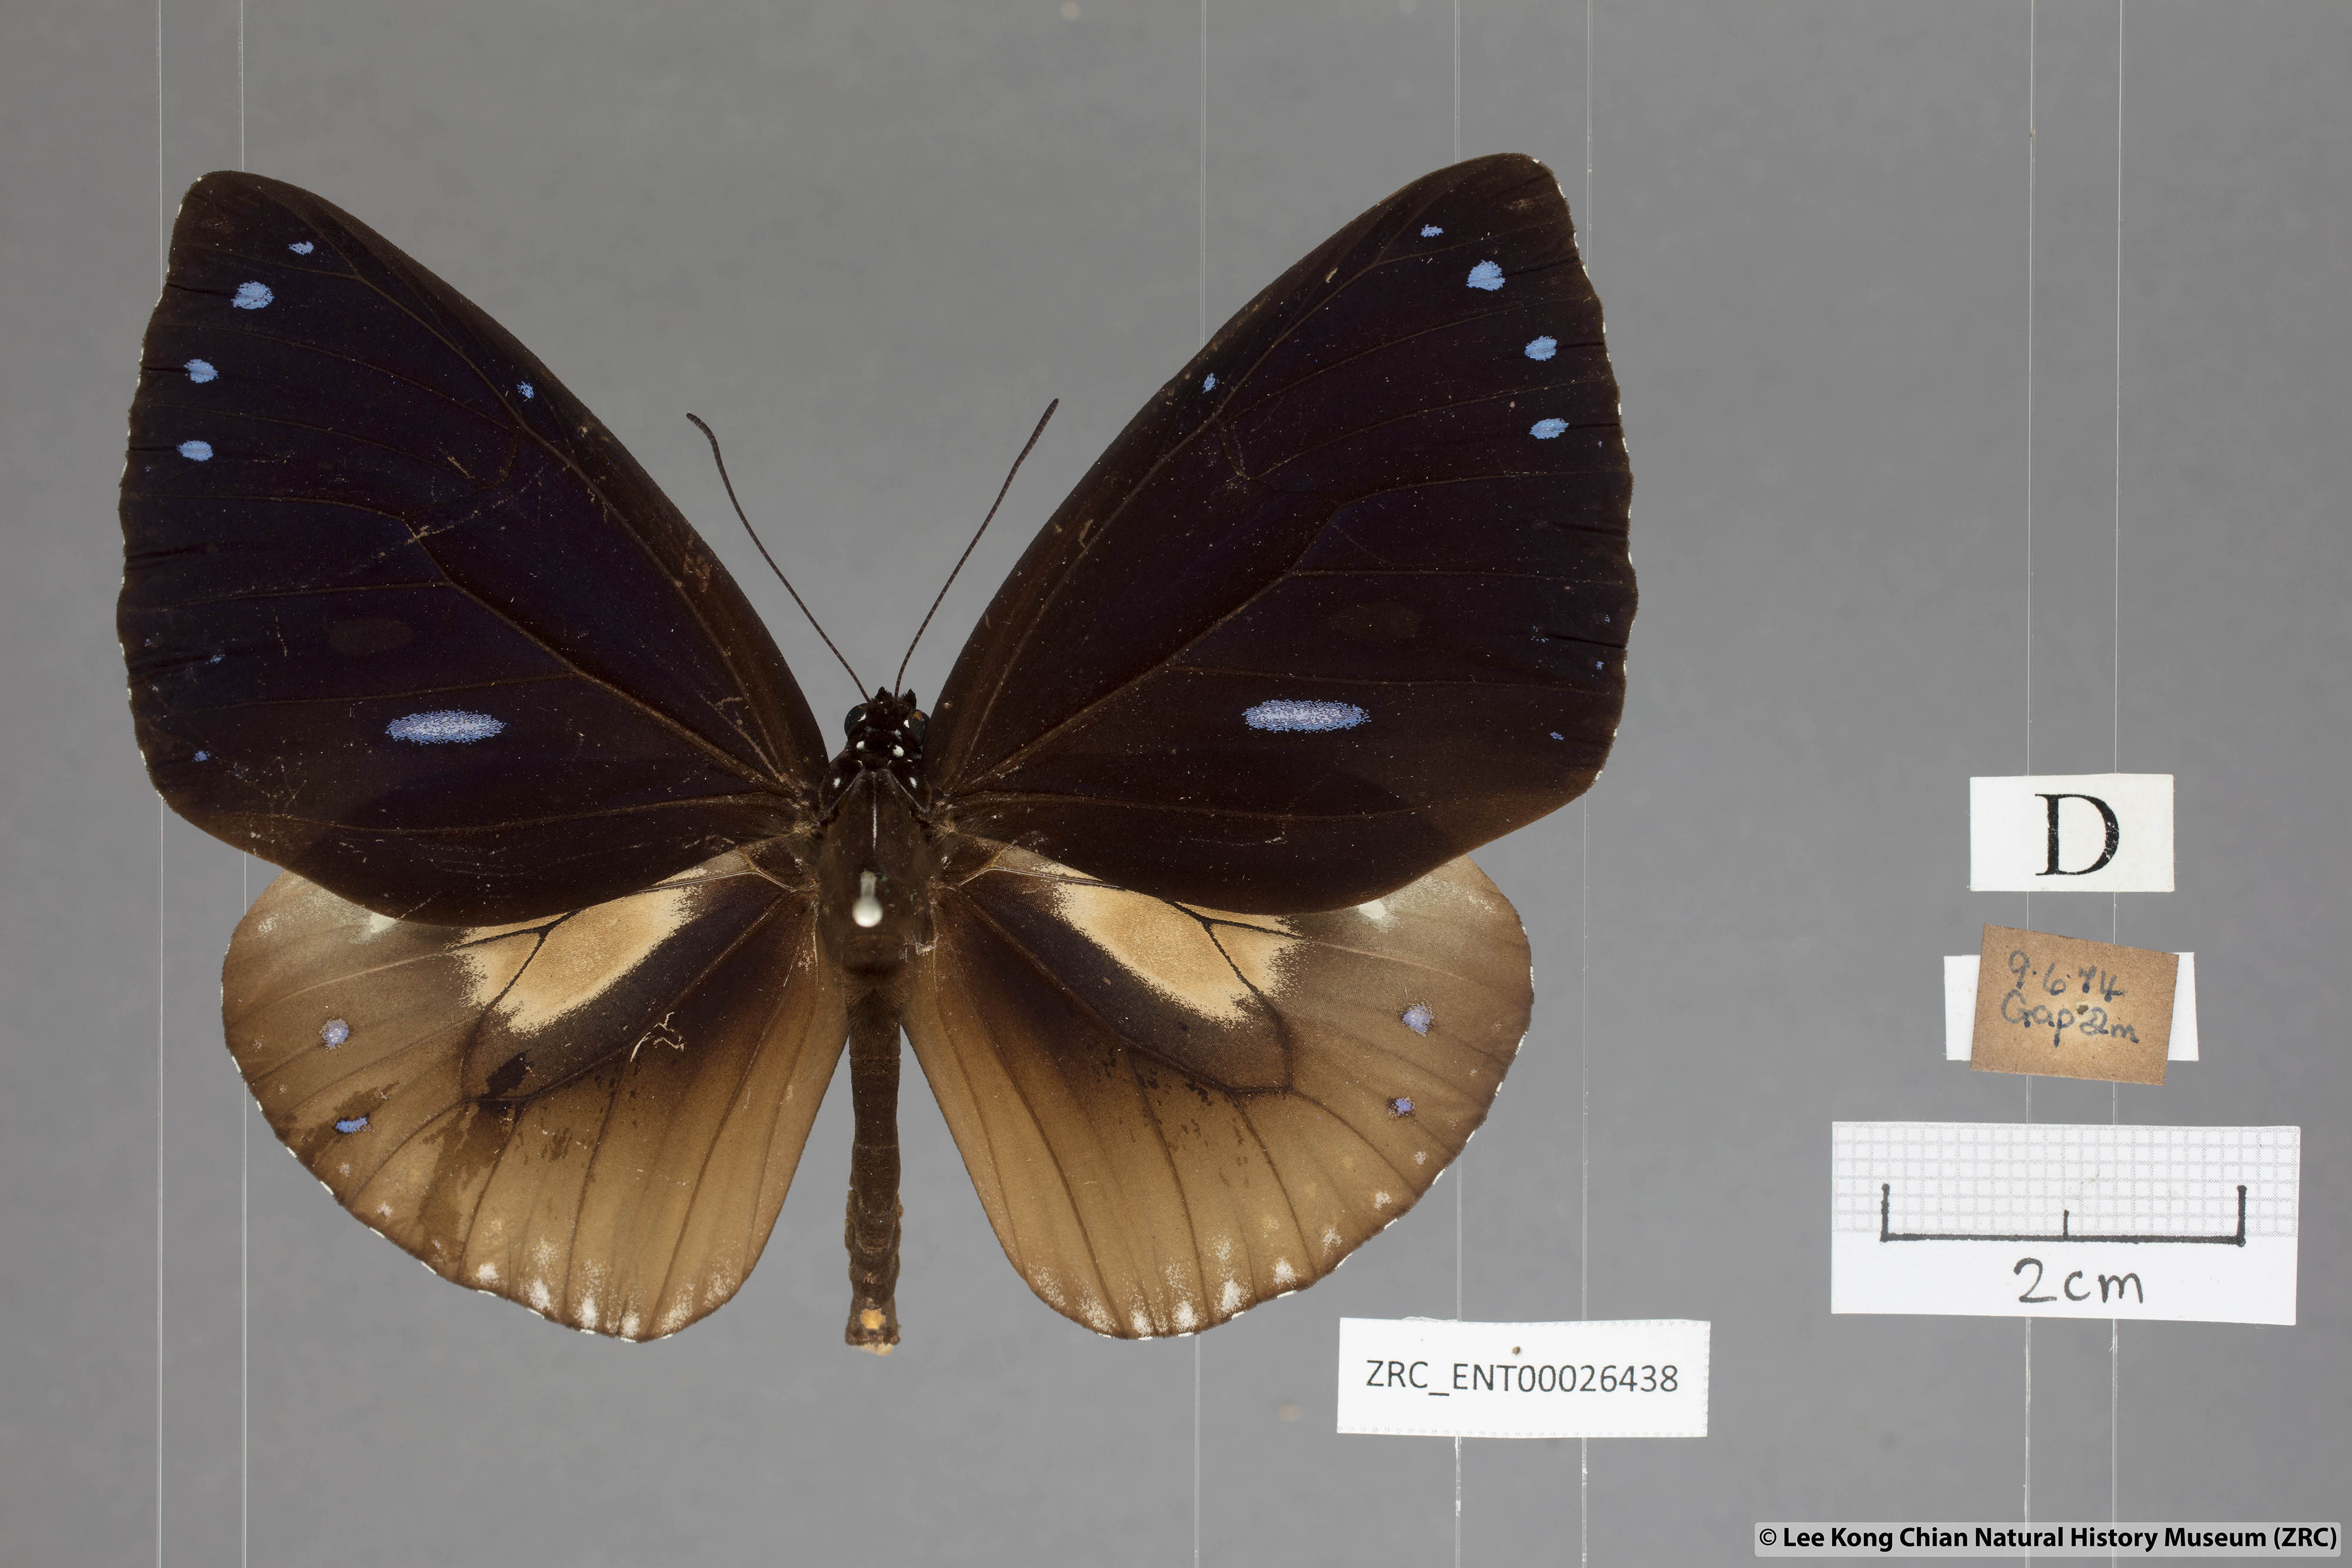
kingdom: Animalia
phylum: Arthropoda
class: Insecta
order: Lepidoptera
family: Nymphalidae
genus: Euploea
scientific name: Euploea eunice
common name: Blue-banded king crow butterfly
